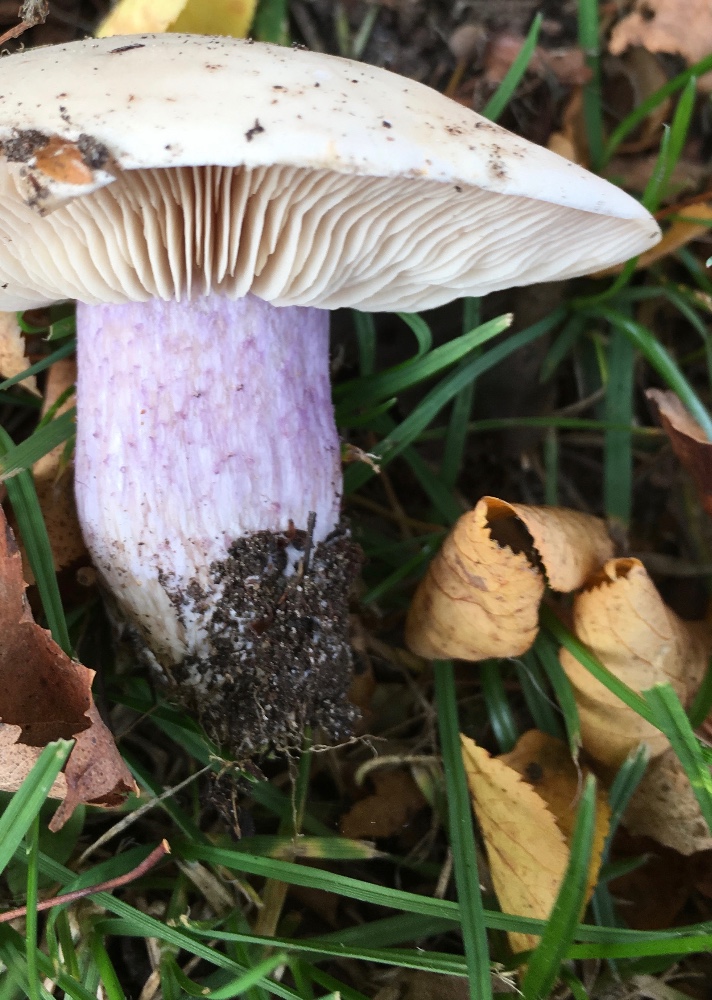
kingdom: Fungi
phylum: Basidiomycota
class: Agaricomycetes
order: Agaricales
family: Tricholomataceae
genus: Lepista
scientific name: Lepista personata
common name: bleg hekseringshat
